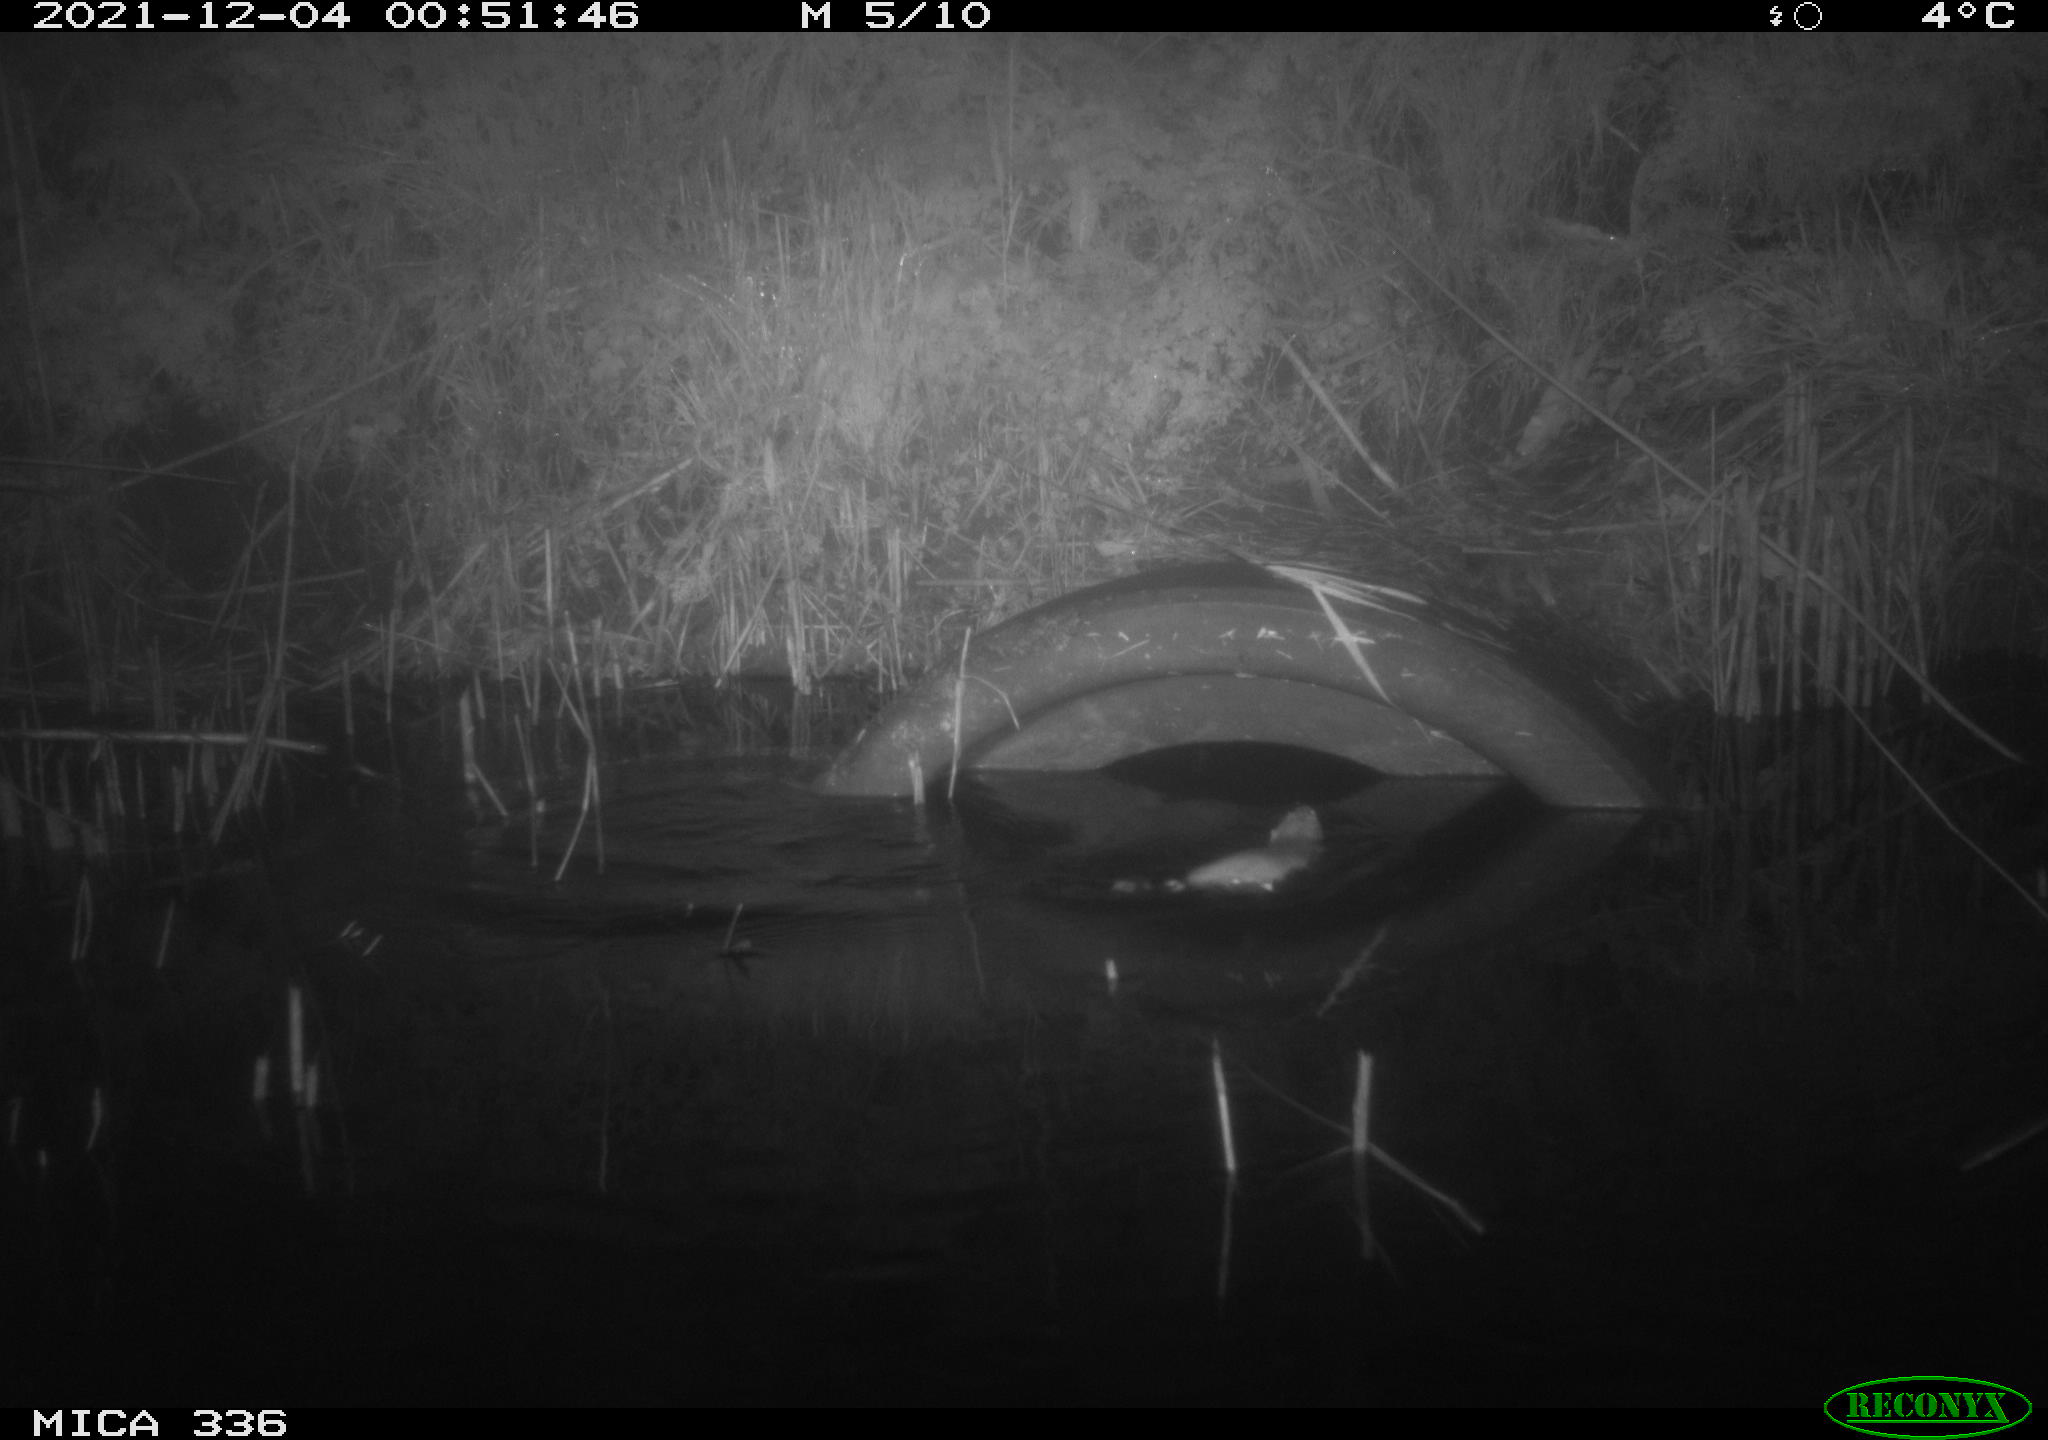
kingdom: Animalia
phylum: Chordata
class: Mammalia
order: Rodentia
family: Muridae
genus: Rattus
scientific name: Rattus norvegicus
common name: Brown rat
